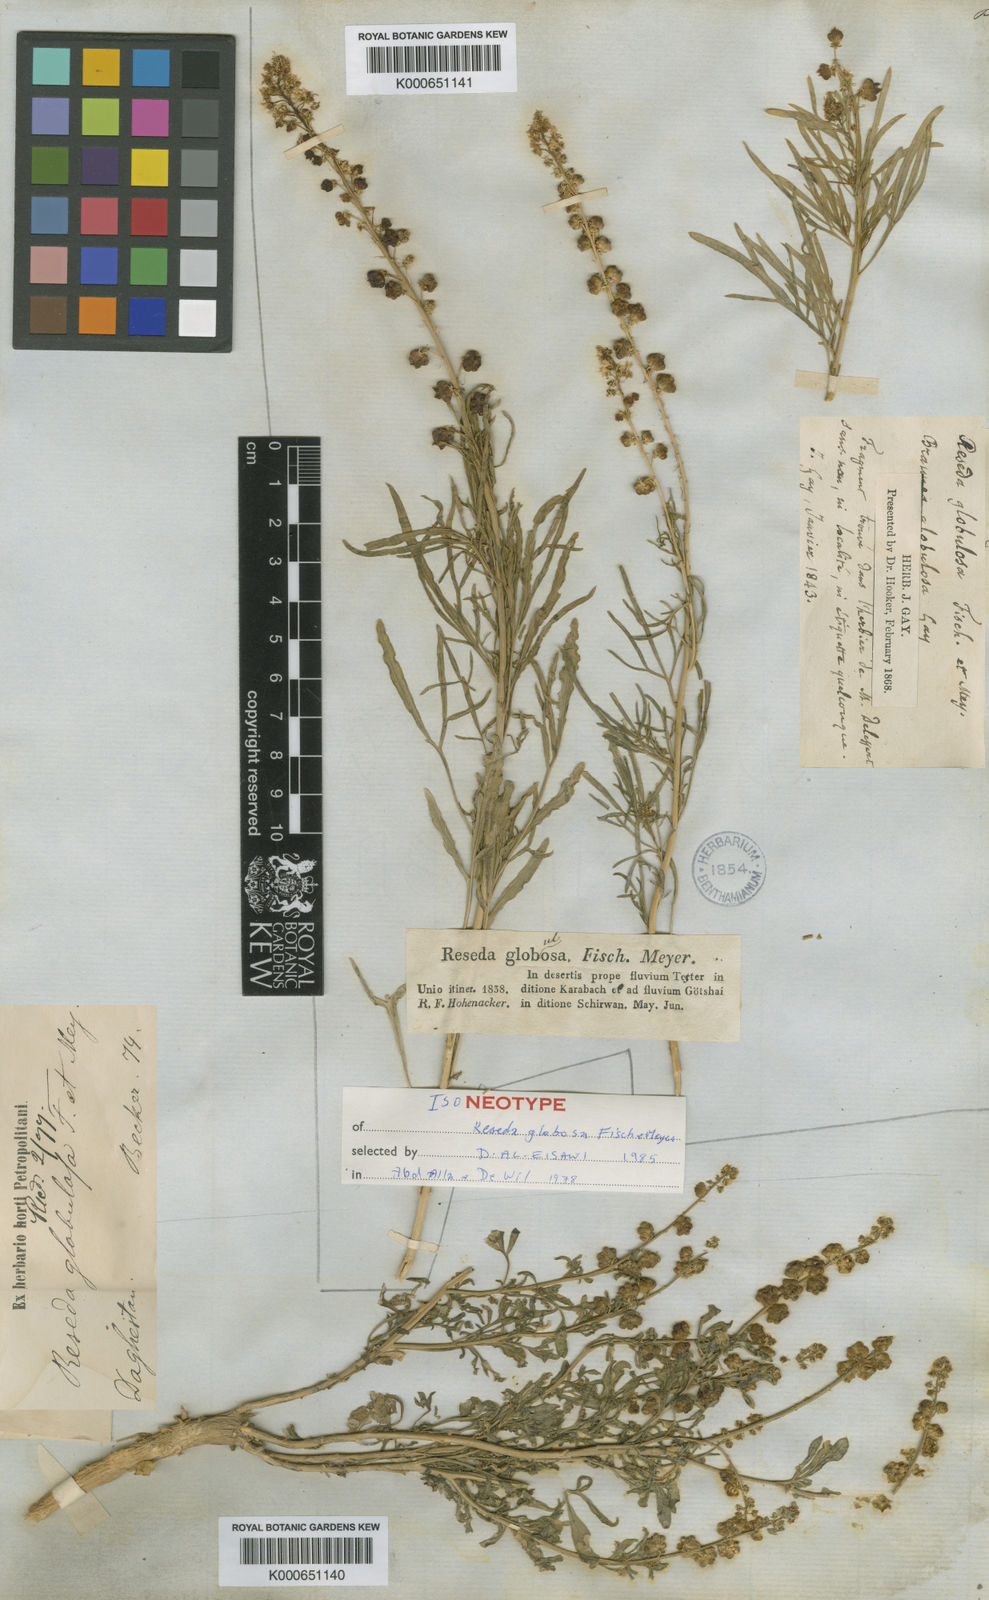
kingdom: Plantae
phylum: Tracheophyta
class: Magnoliopsida
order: Brassicales
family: Resedaceae
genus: Reseda
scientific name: Reseda globulosa
